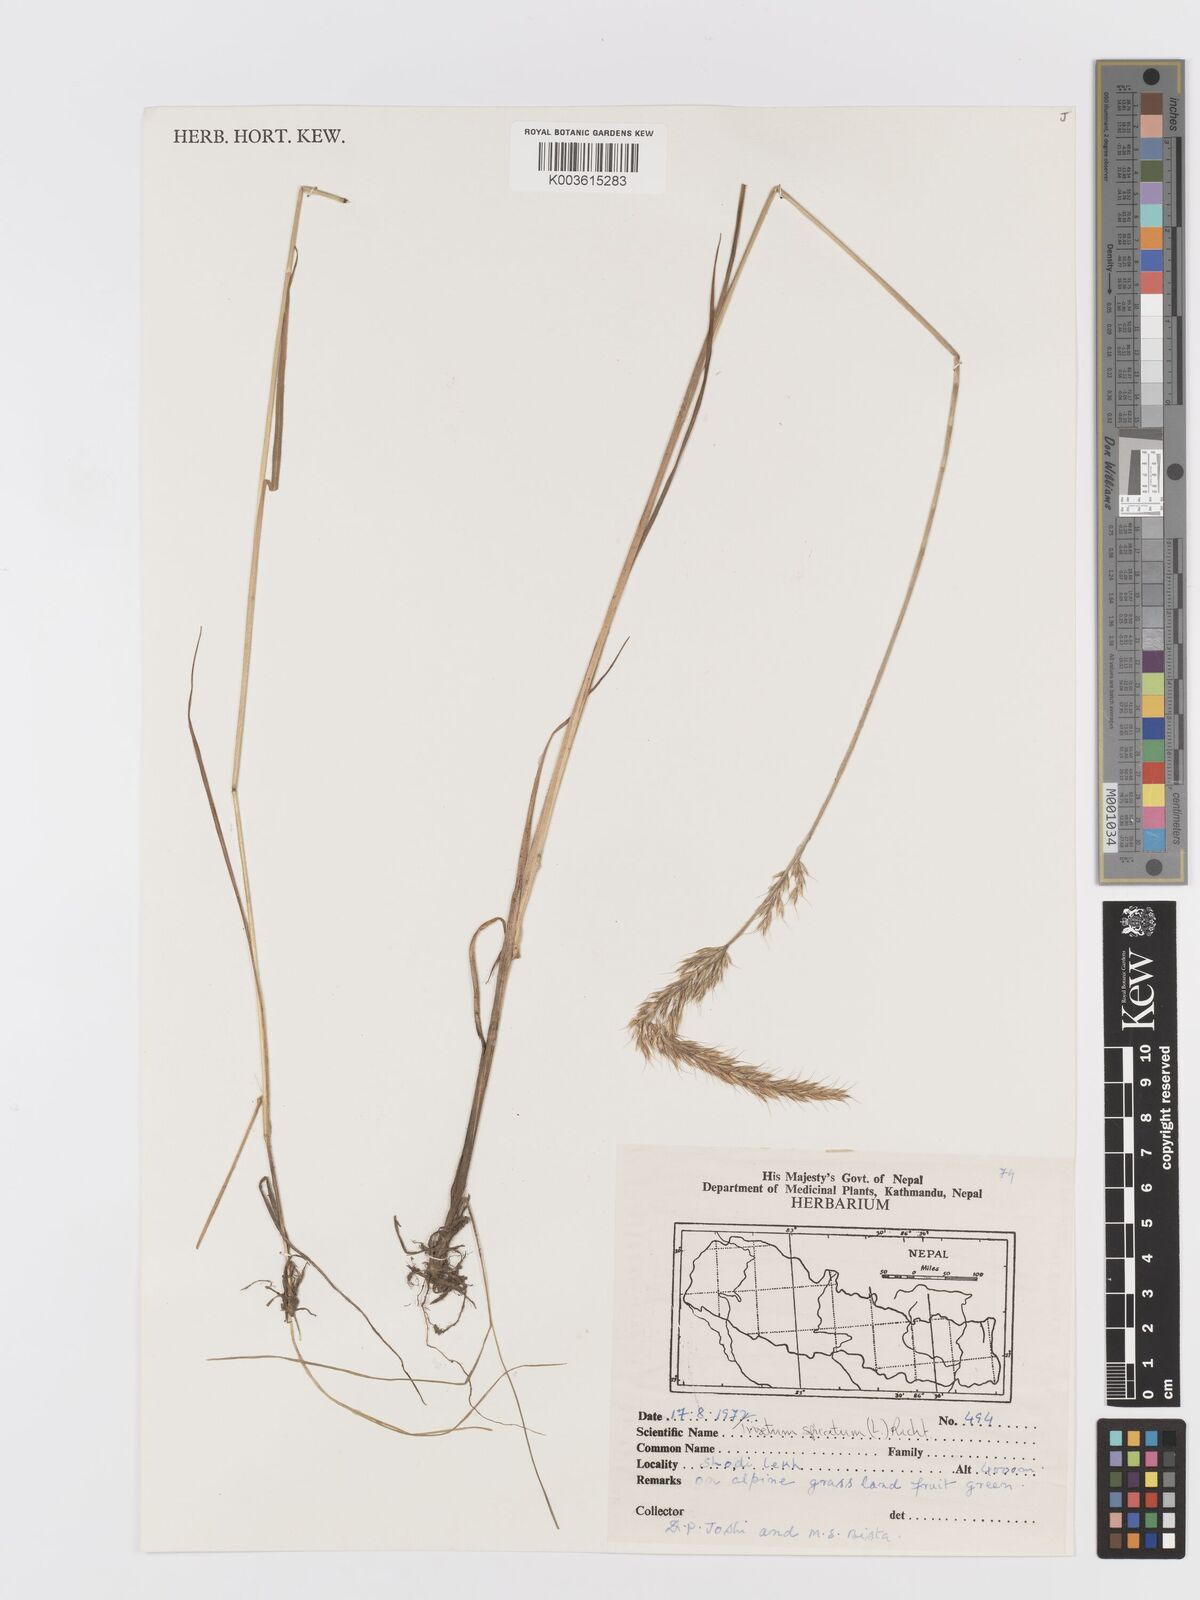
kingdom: Plantae
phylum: Tracheophyta
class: Liliopsida
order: Poales
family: Poaceae
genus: Koeleria
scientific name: Koeleria spicata
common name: Mountain trisetum
